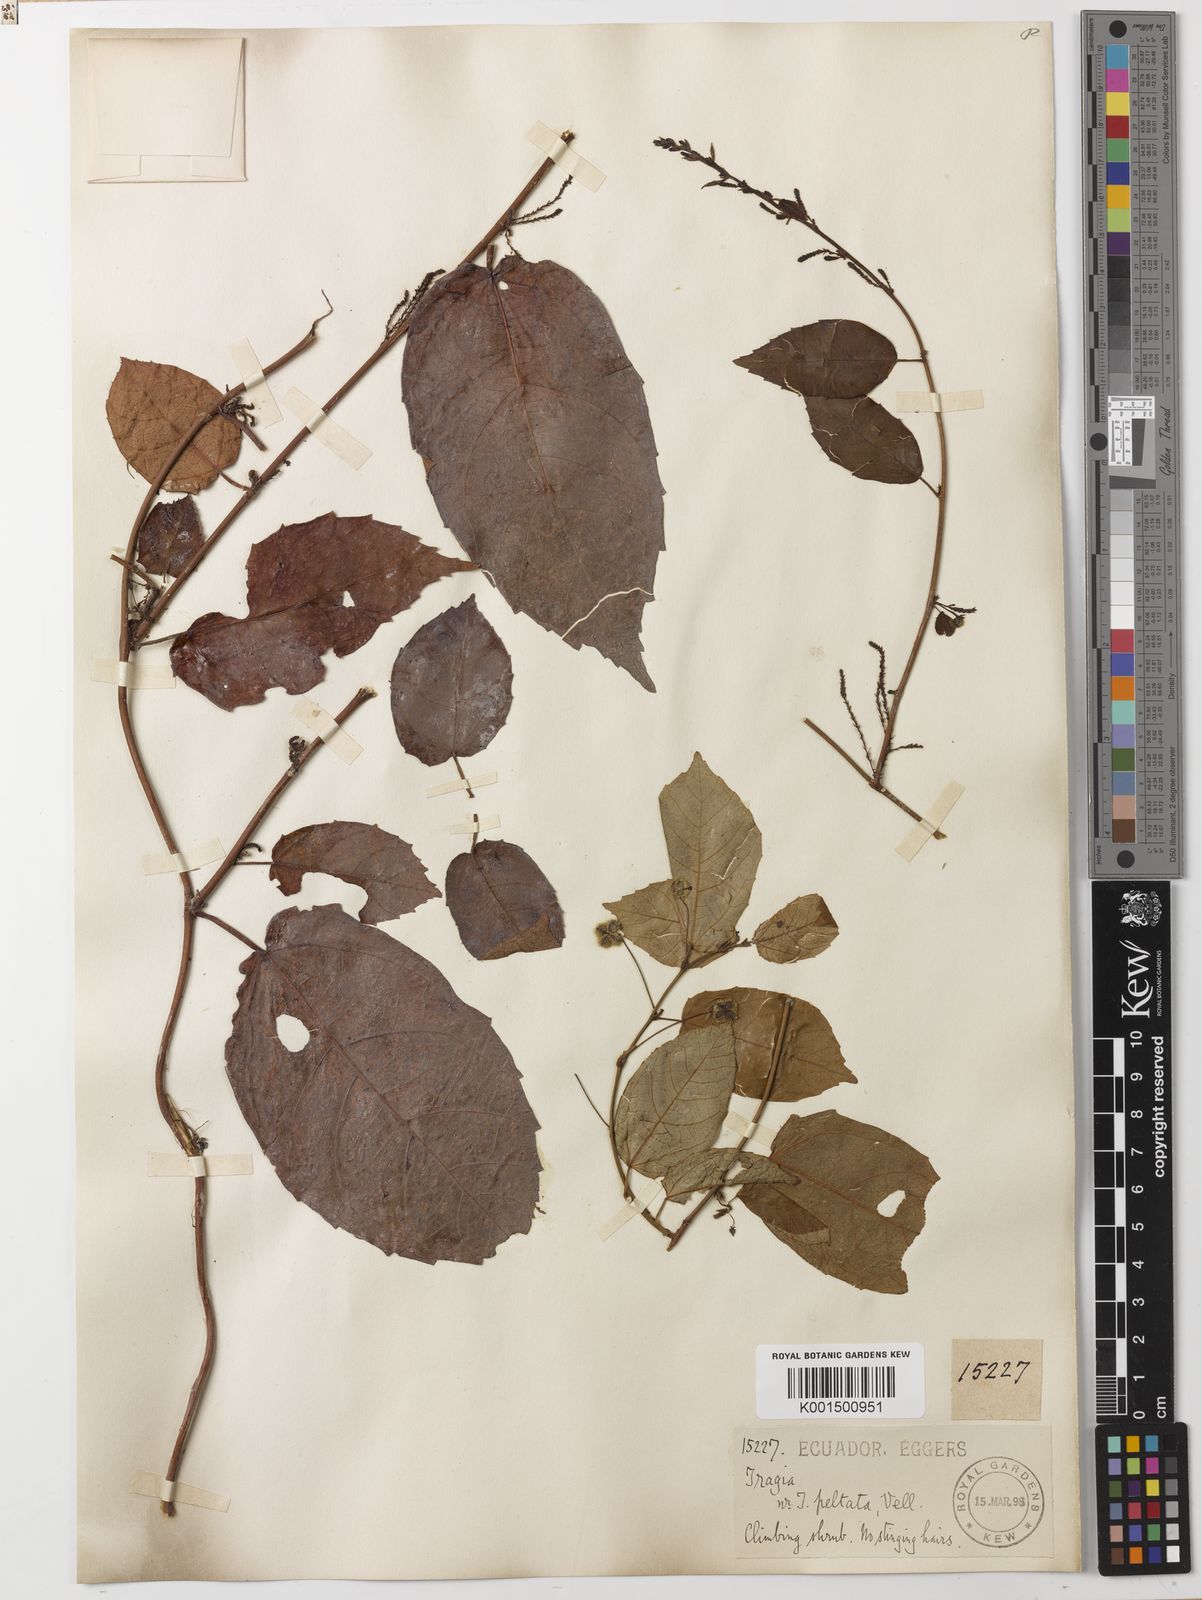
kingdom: Plantae
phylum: Tracheophyta
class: Magnoliopsida
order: Malpighiales
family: Euphorbiaceae
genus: Tragia
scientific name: Tragia volubilis
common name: Twining cow-itch
